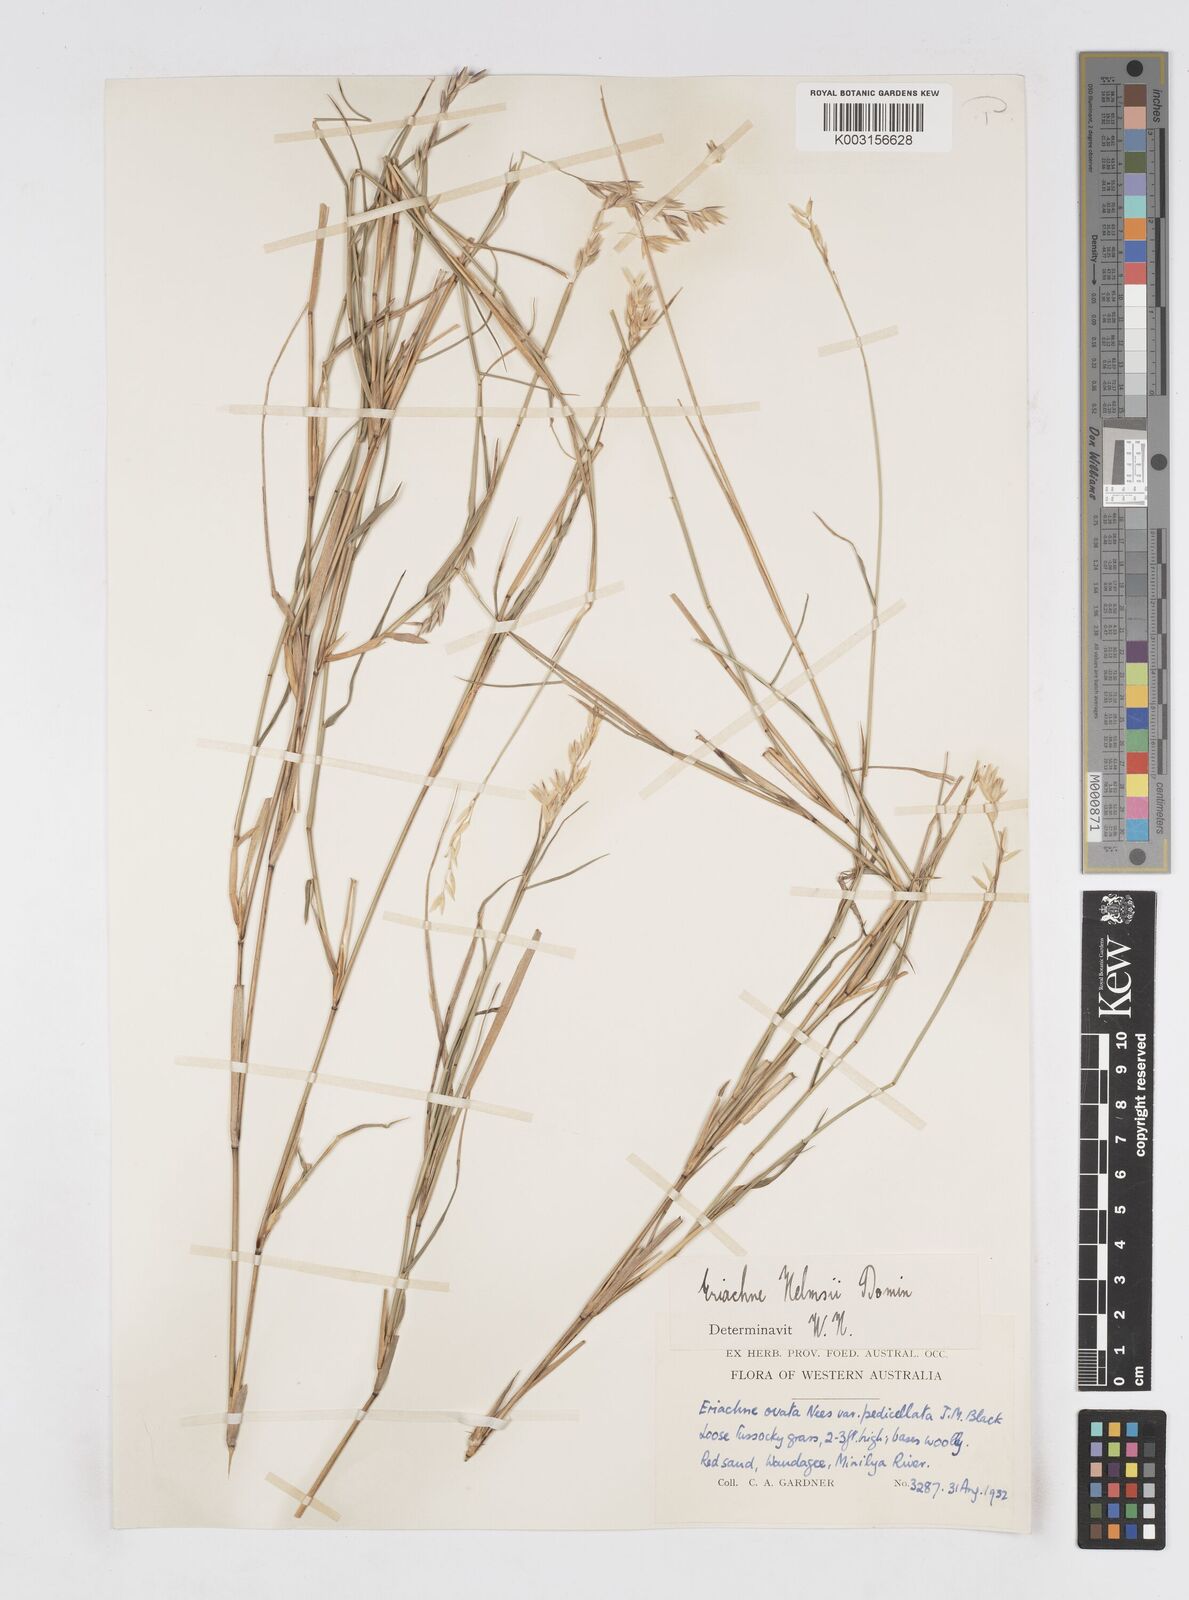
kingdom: Plantae
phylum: Tracheophyta
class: Liliopsida
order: Poales
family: Poaceae
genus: Eriachne
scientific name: Eriachne helmsii
